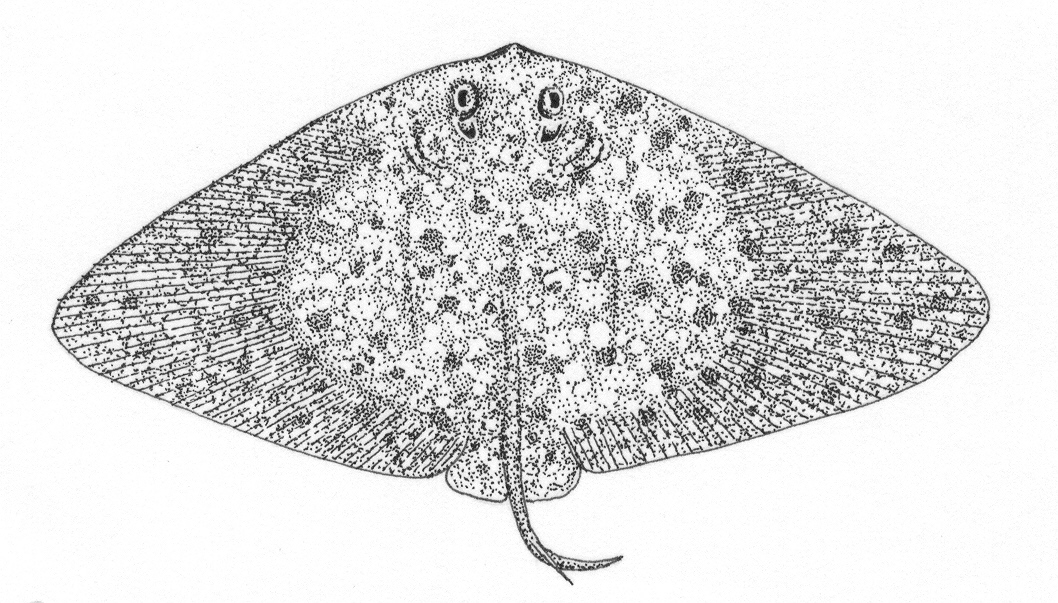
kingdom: Animalia
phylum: Chordata
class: Elasmobranchii
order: Myliobatiformes
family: Gymnuridae
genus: Gymnura
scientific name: Gymnura natalensis
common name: Backwater butterfly ray
